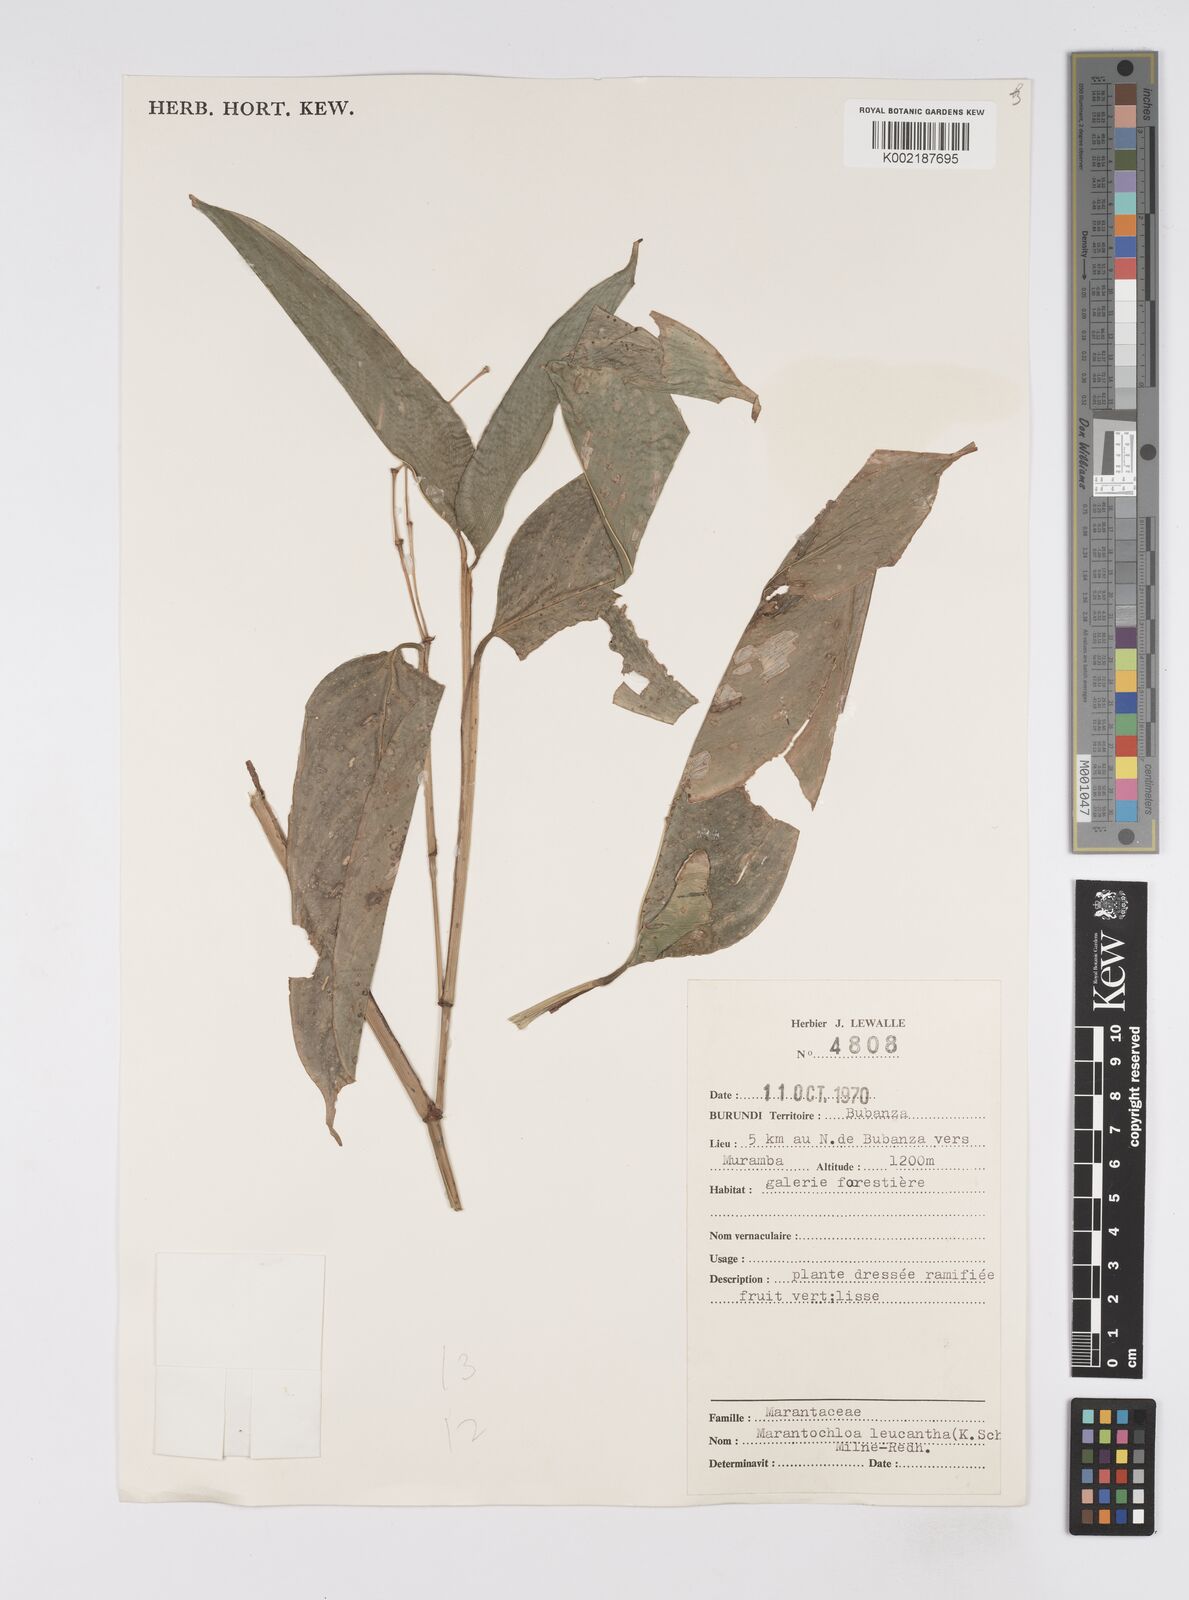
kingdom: Plantae
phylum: Tracheophyta
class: Liliopsida
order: Zingiberales
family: Marantaceae
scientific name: Marantaceae
